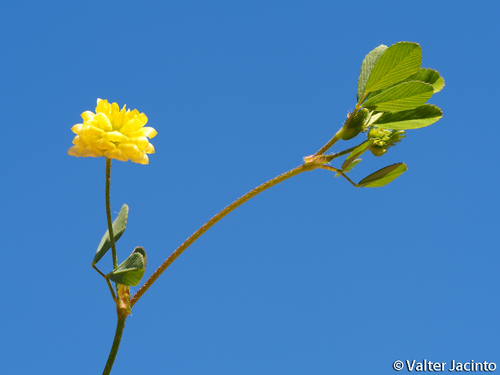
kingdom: Plantae
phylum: Tracheophyta
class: Magnoliopsida
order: Fabales
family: Fabaceae
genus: Trifolium
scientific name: Trifolium campestre
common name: Field clover
